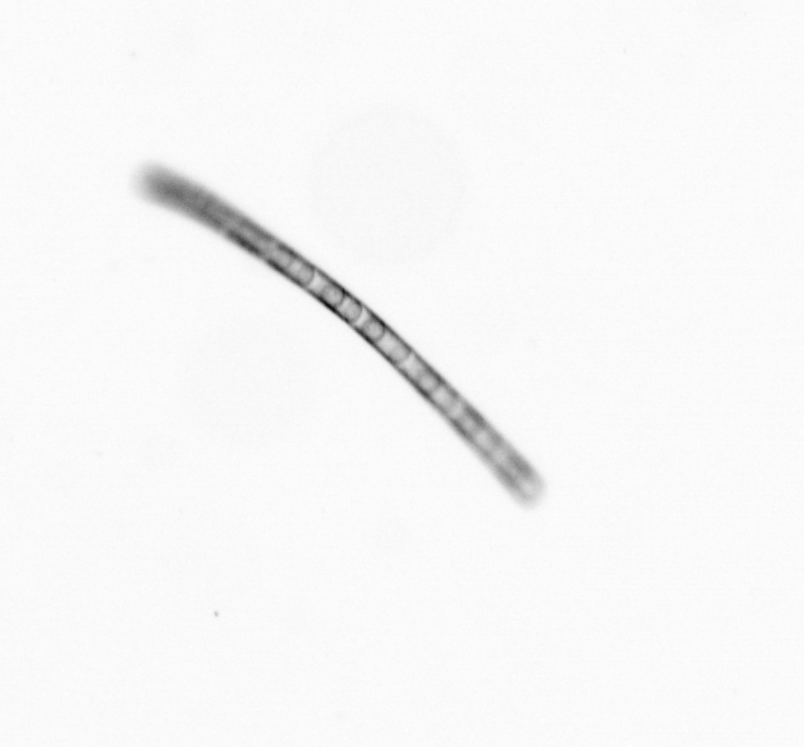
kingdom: Chromista
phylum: Ochrophyta
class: Bacillariophyceae
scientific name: Bacillariophyceae
